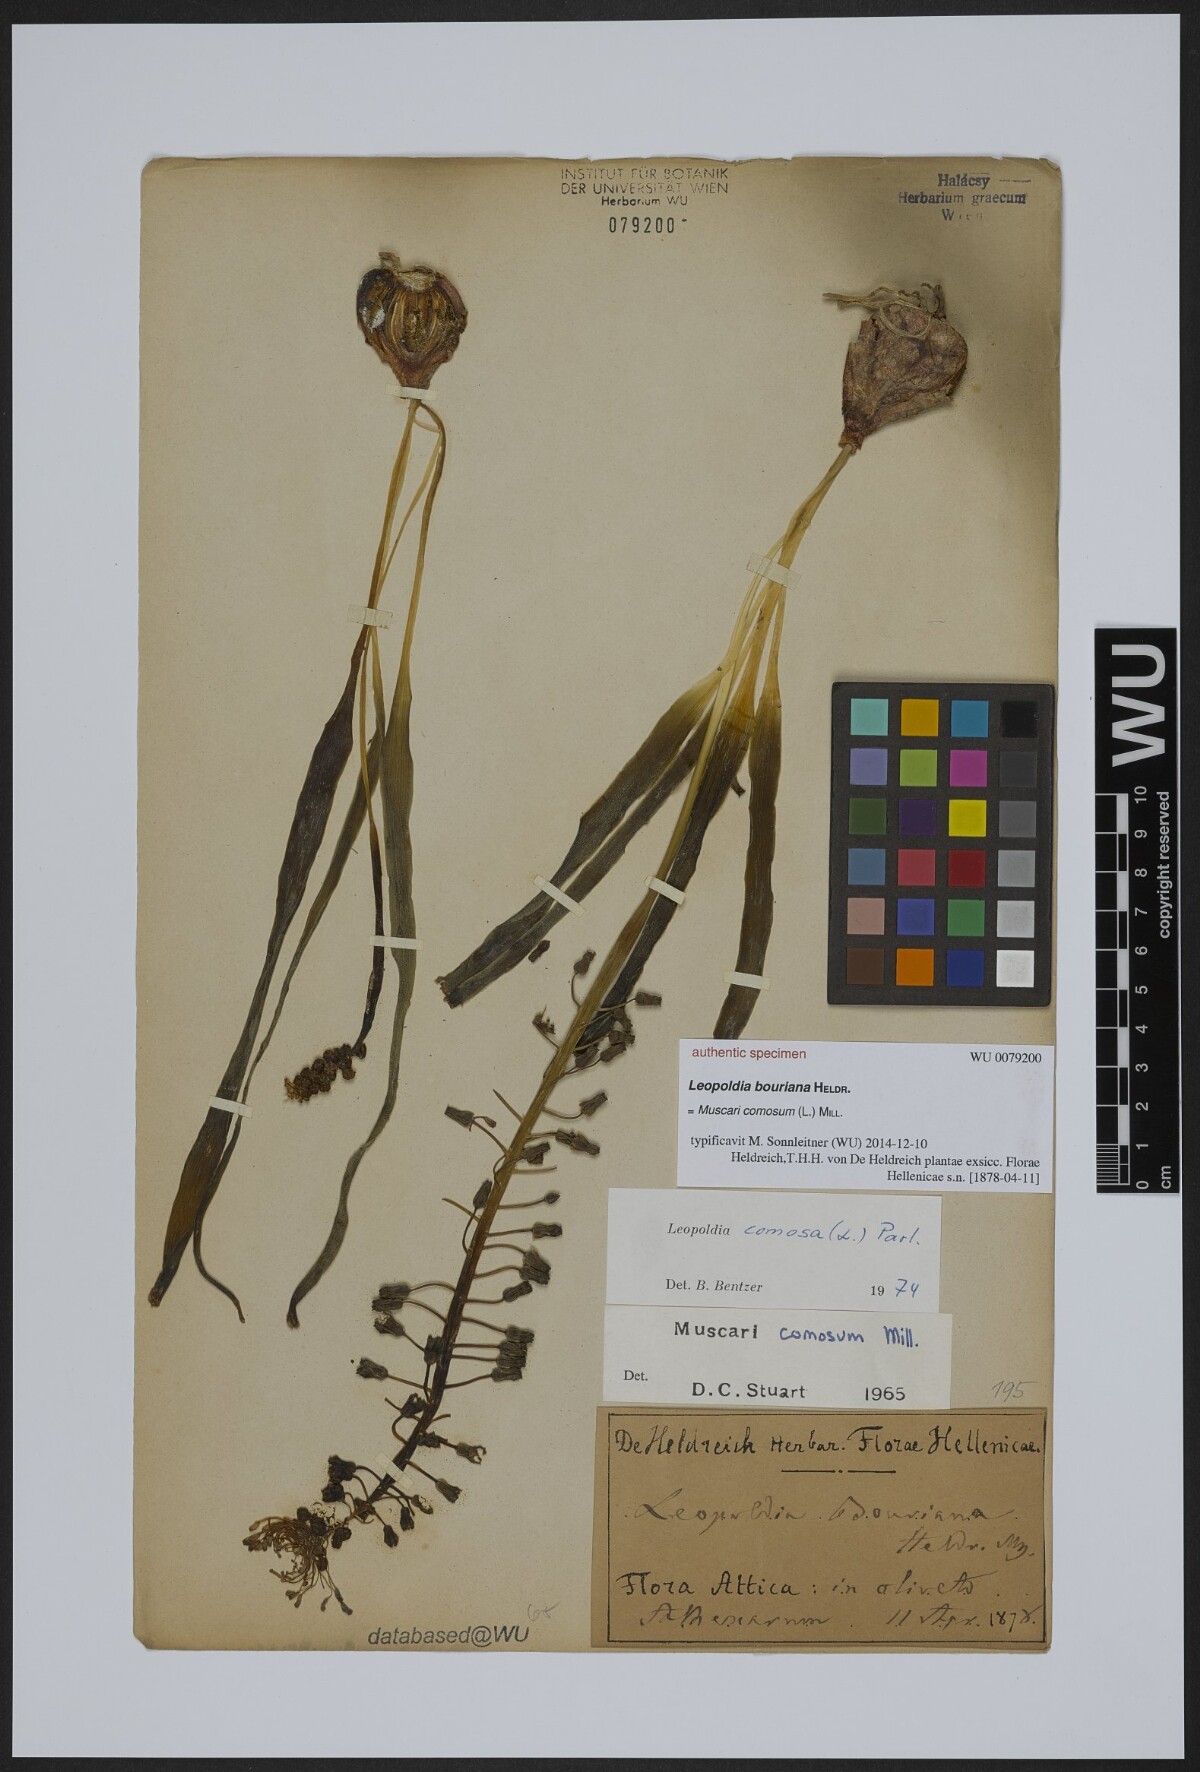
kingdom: Plantae
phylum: Tracheophyta
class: Liliopsida
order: Asparagales
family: Asparagaceae
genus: Muscari
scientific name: Muscari comosum
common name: Tassel hyacinth
